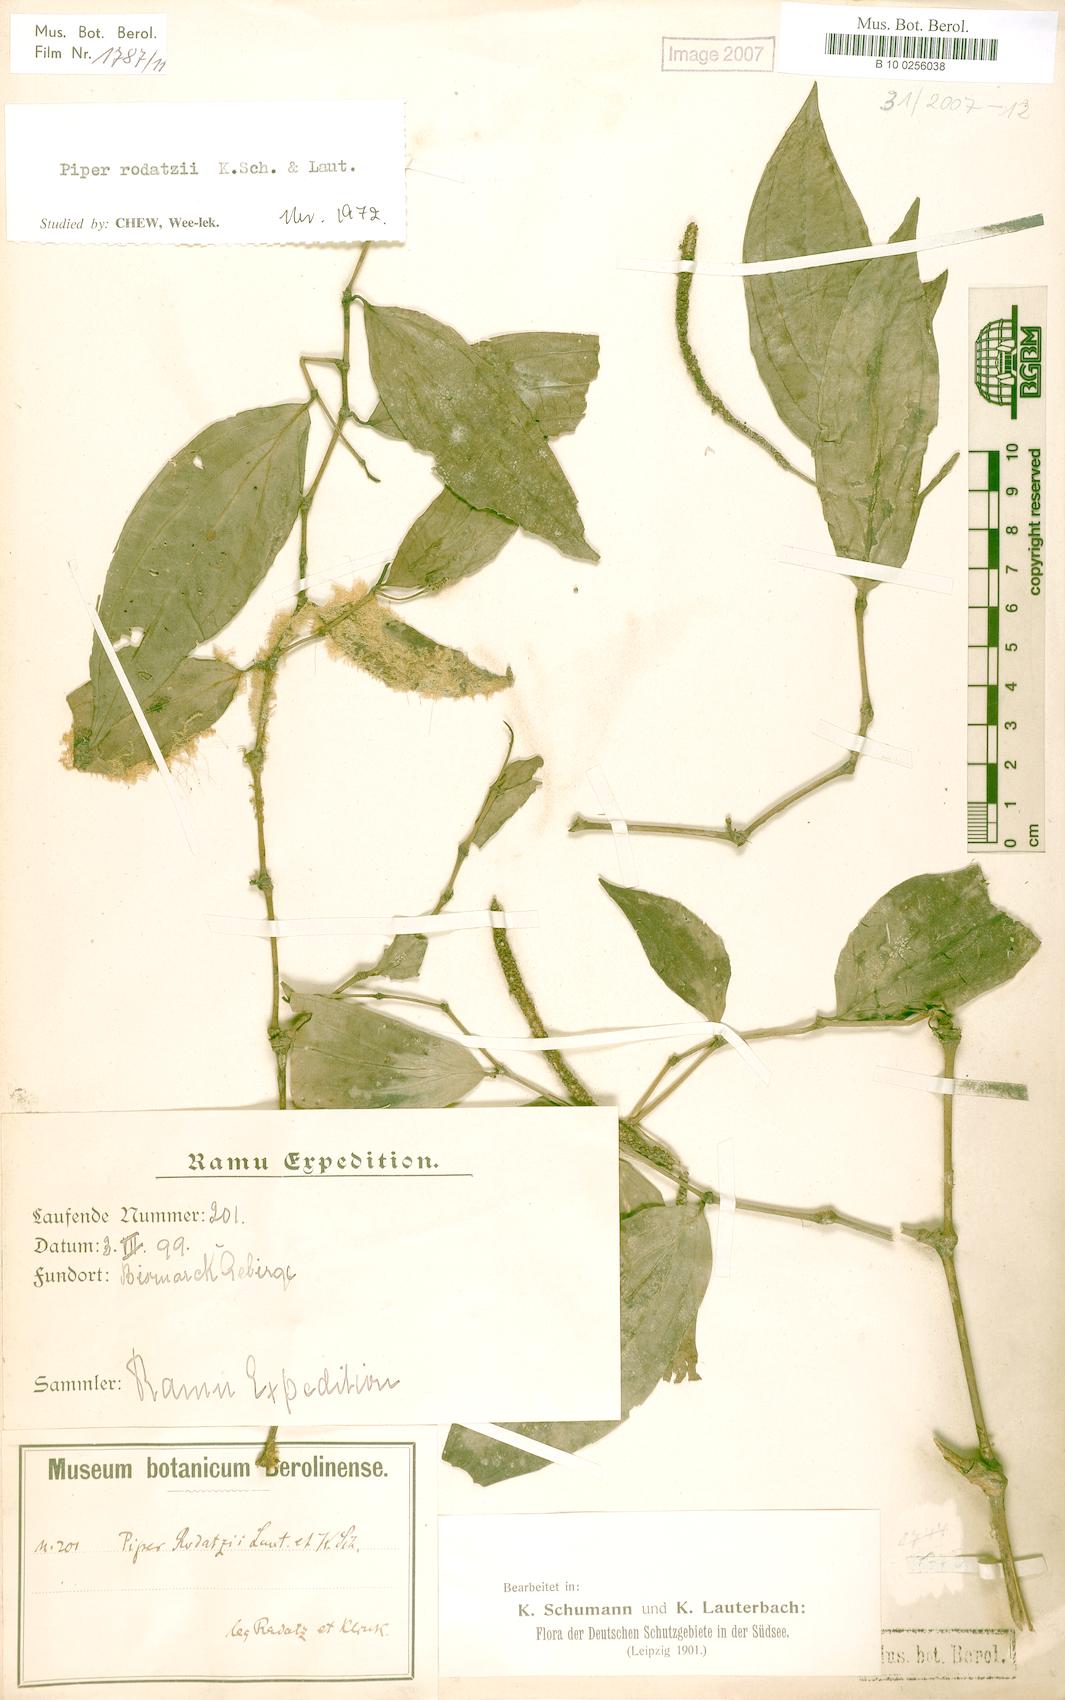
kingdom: Plantae
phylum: Tracheophyta
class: Magnoliopsida
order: Piperales
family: Piperaceae
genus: Piper
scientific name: Piper macropiper
